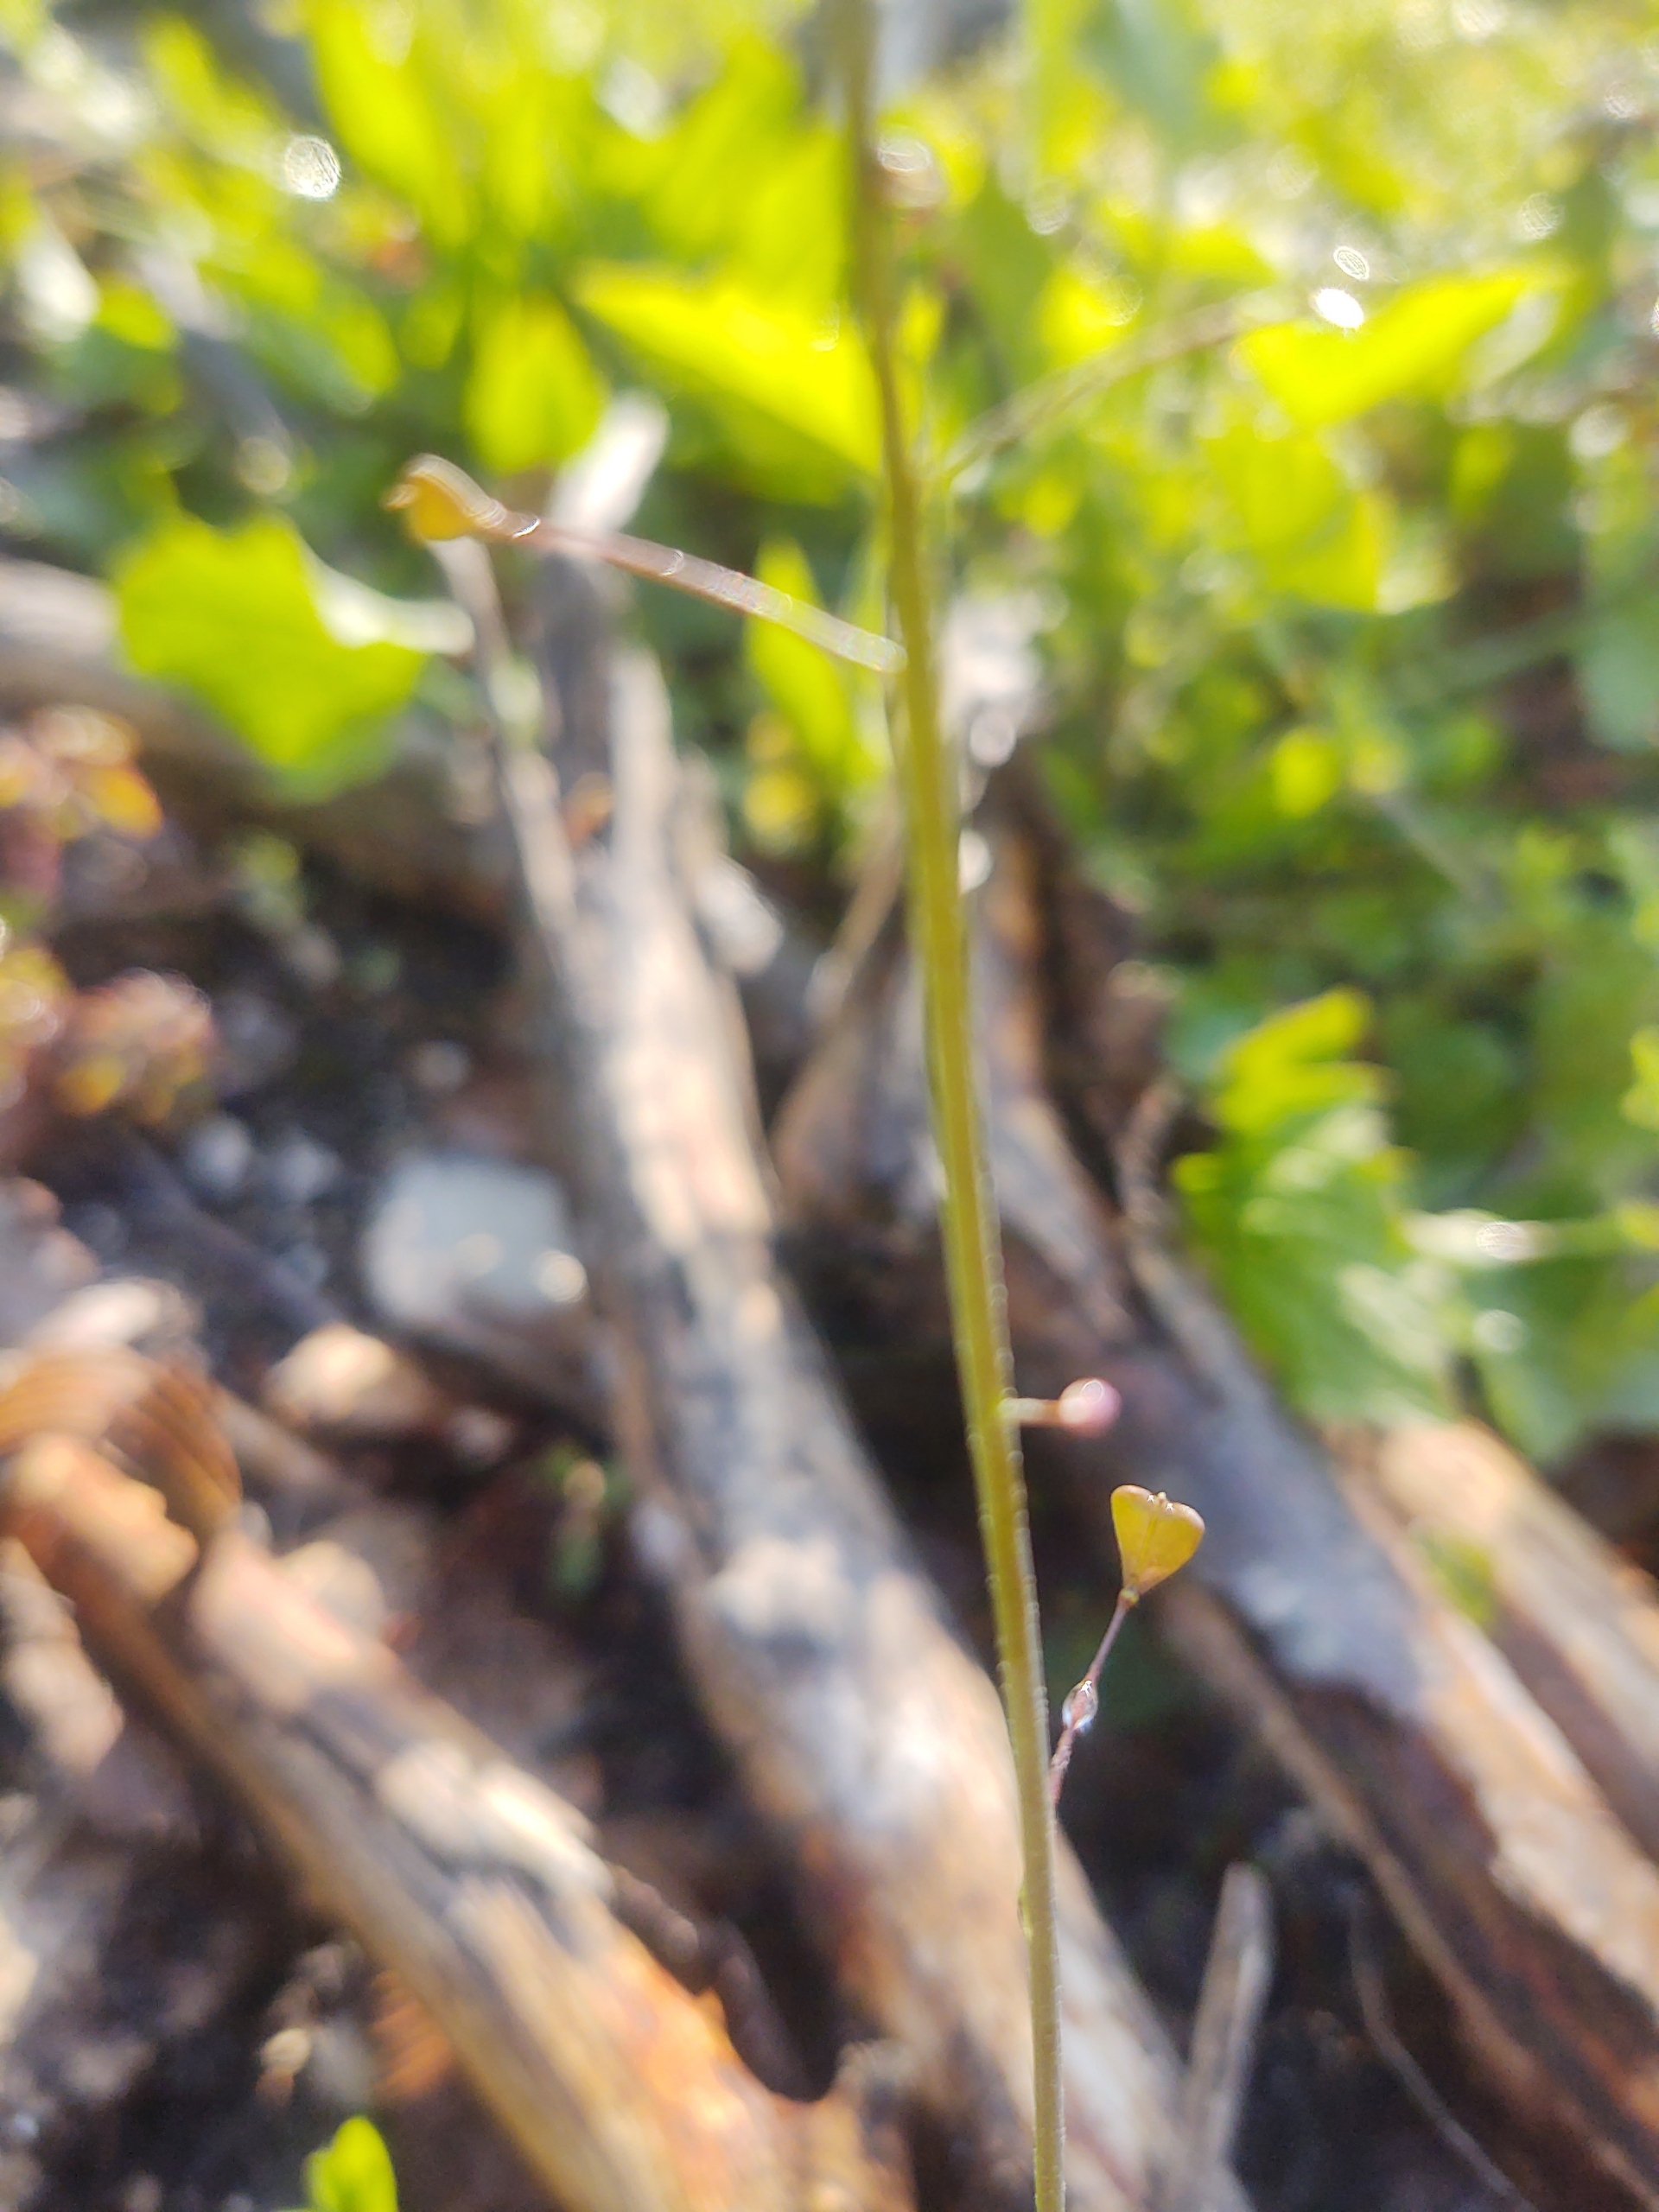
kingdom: Plantae
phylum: Tracheophyta
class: Magnoliopsida
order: Brassicales
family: Brassicaceae
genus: Capsella
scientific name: Capsella bursa-pastoris
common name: Hyrdetaske
